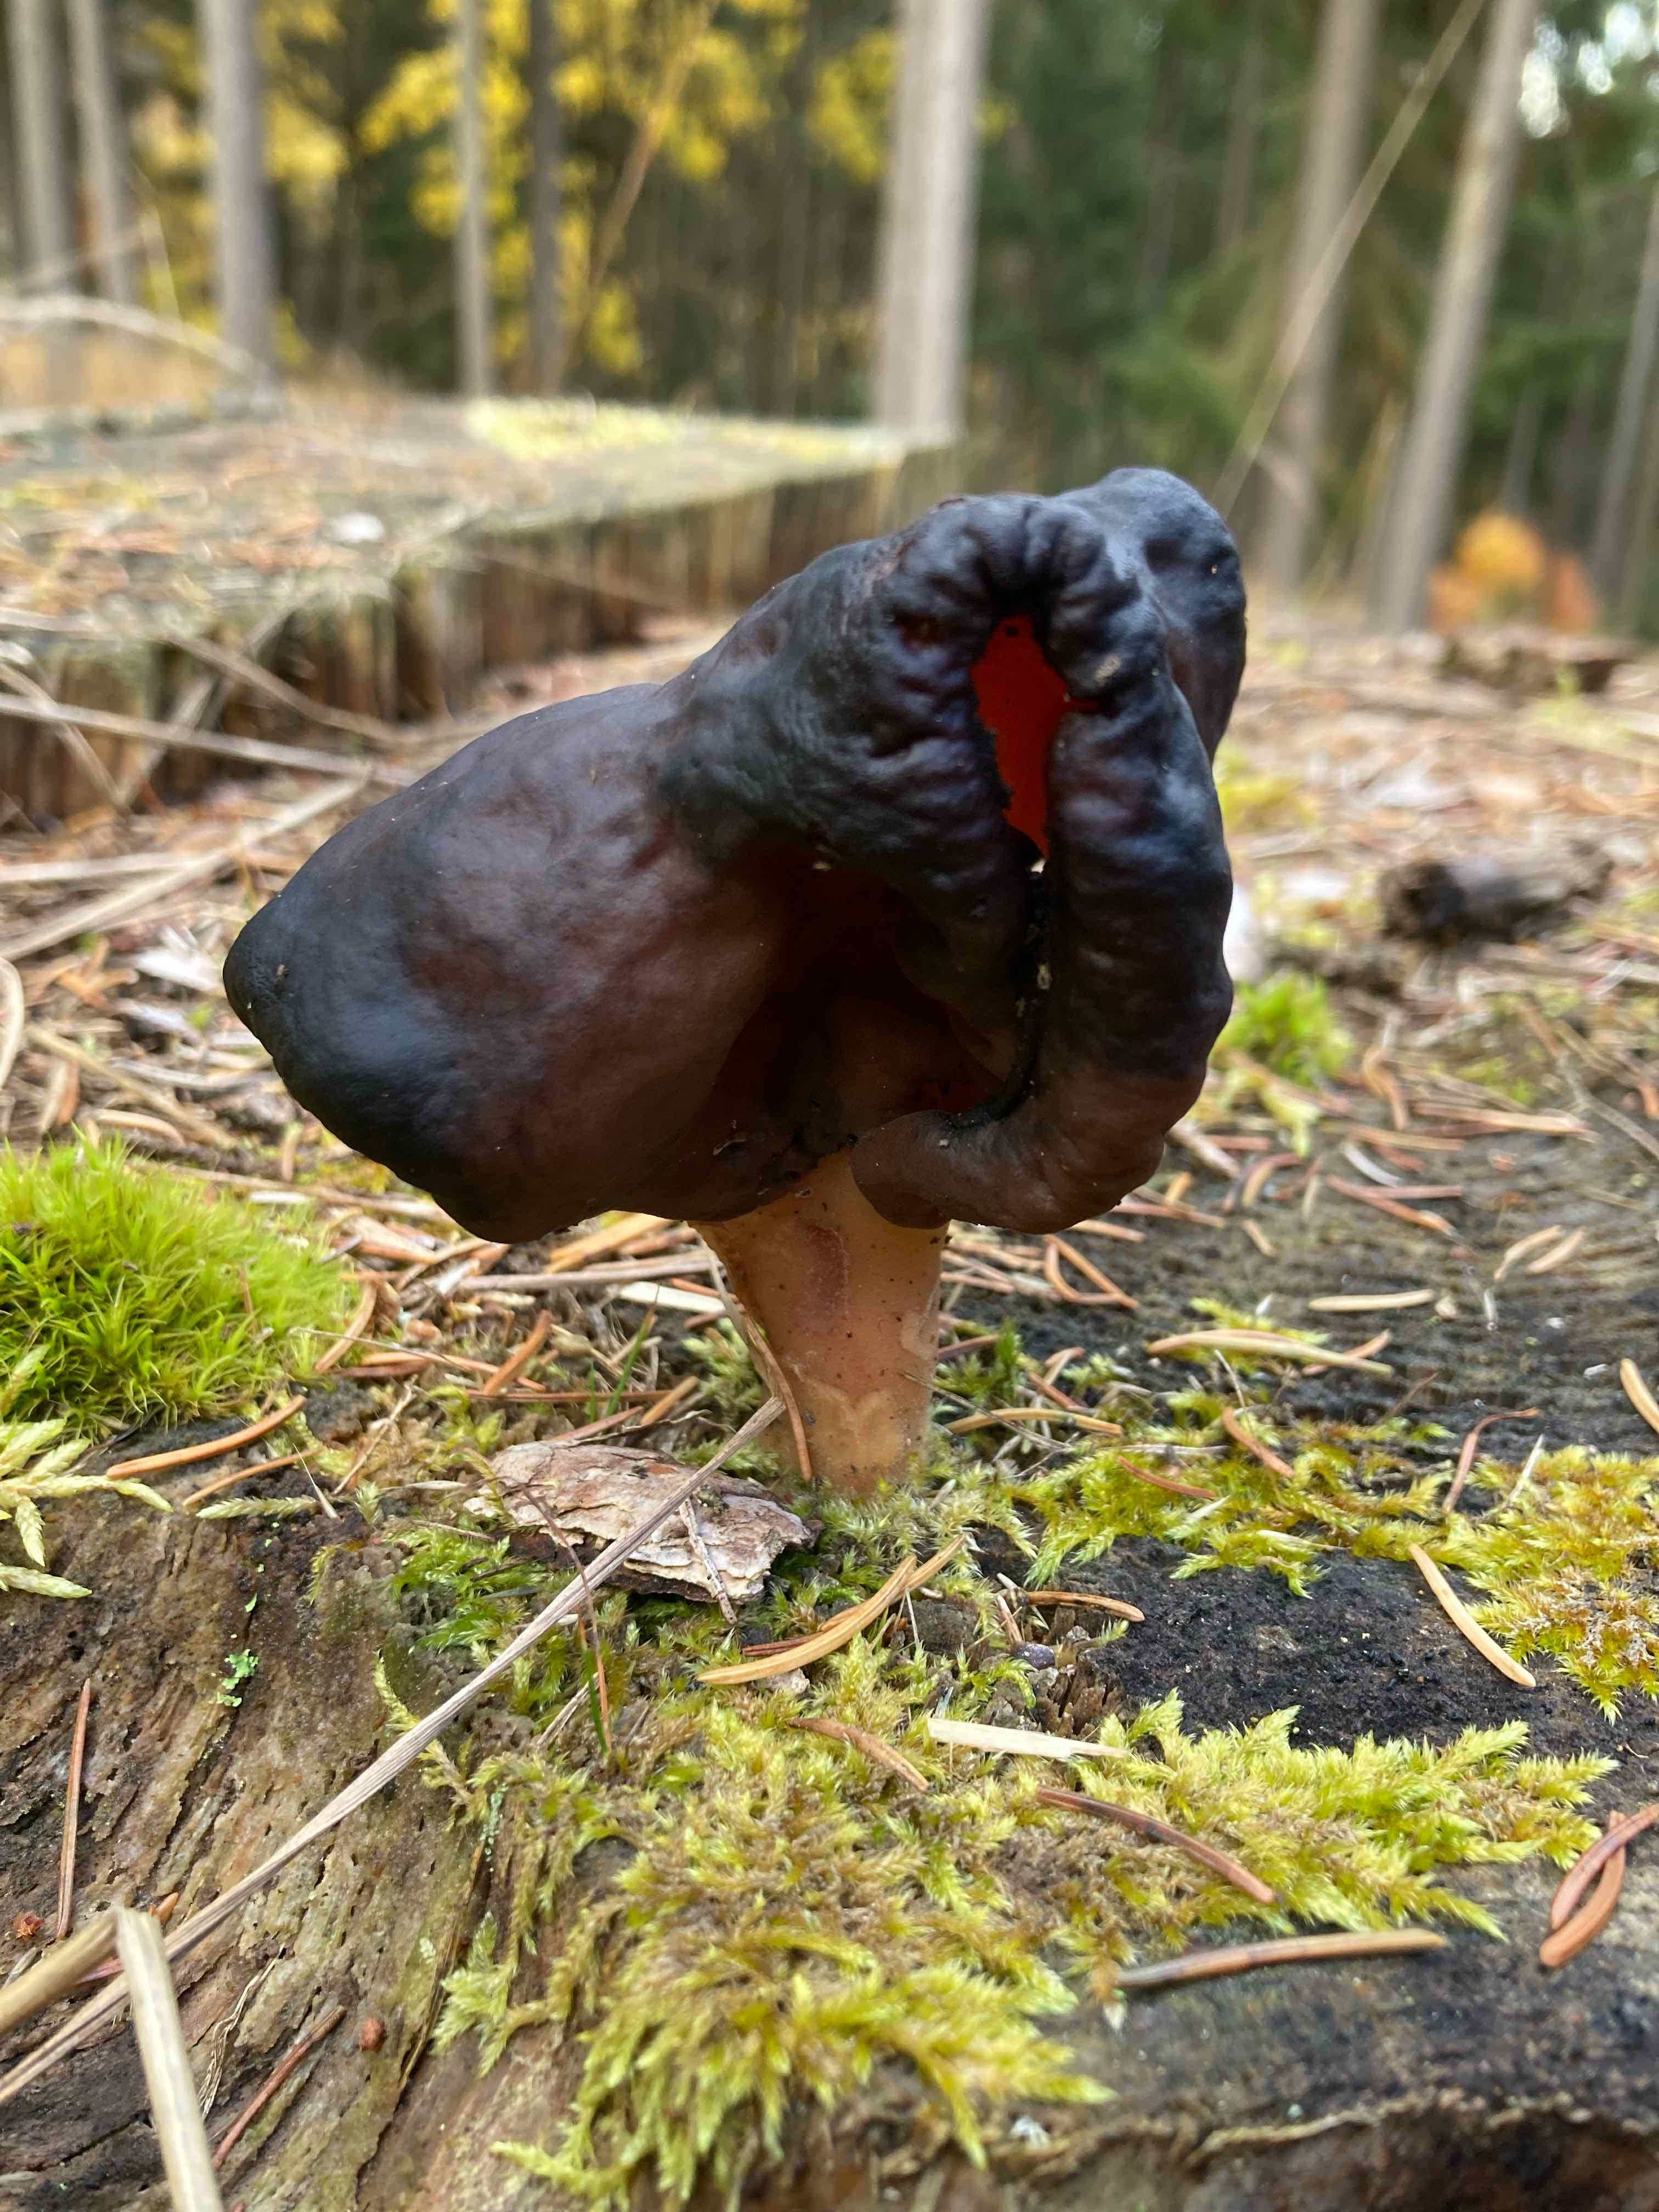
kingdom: Fungi
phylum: Ascomycota
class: Pezizomycetes
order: Pezizales
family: Discinaceae
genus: Gyromitra
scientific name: Gyromitra infula
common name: bispehue-stenmorkel
